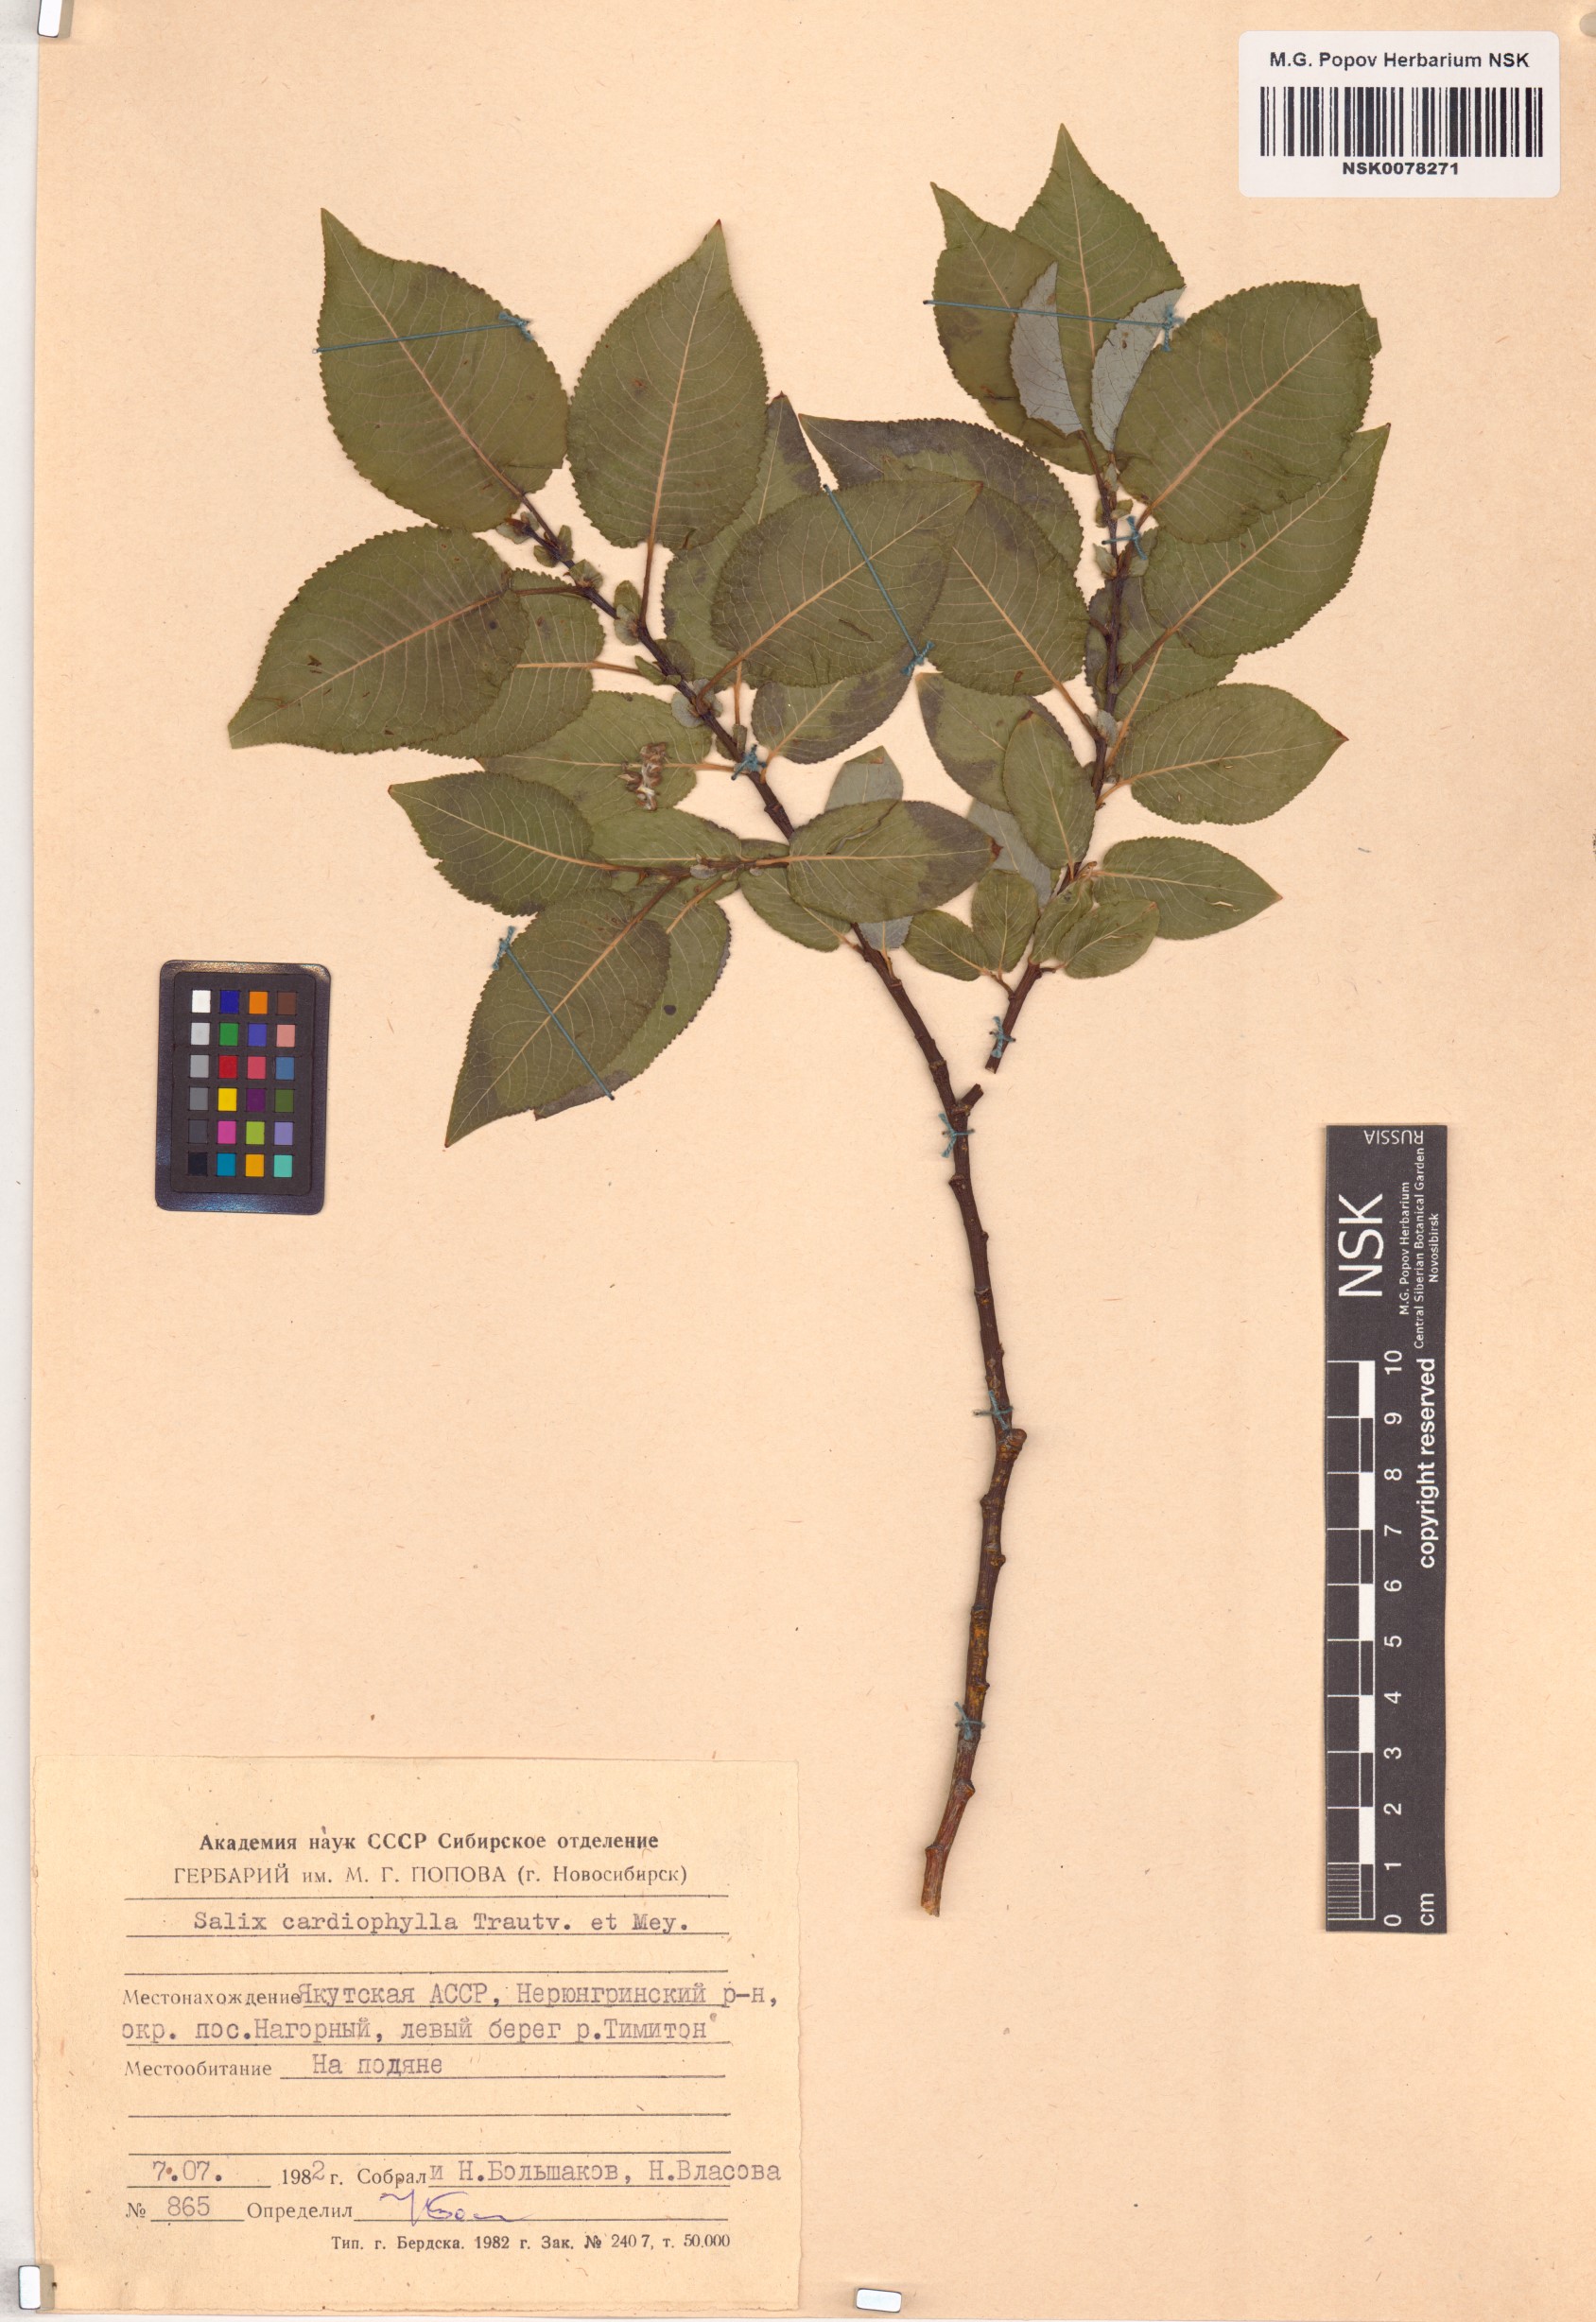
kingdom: Plantae
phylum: Tracheophyta
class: Magnoliopsida
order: Malpighiales
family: Salicaceae
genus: Chosenia
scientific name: Chosenia cardiophylla
